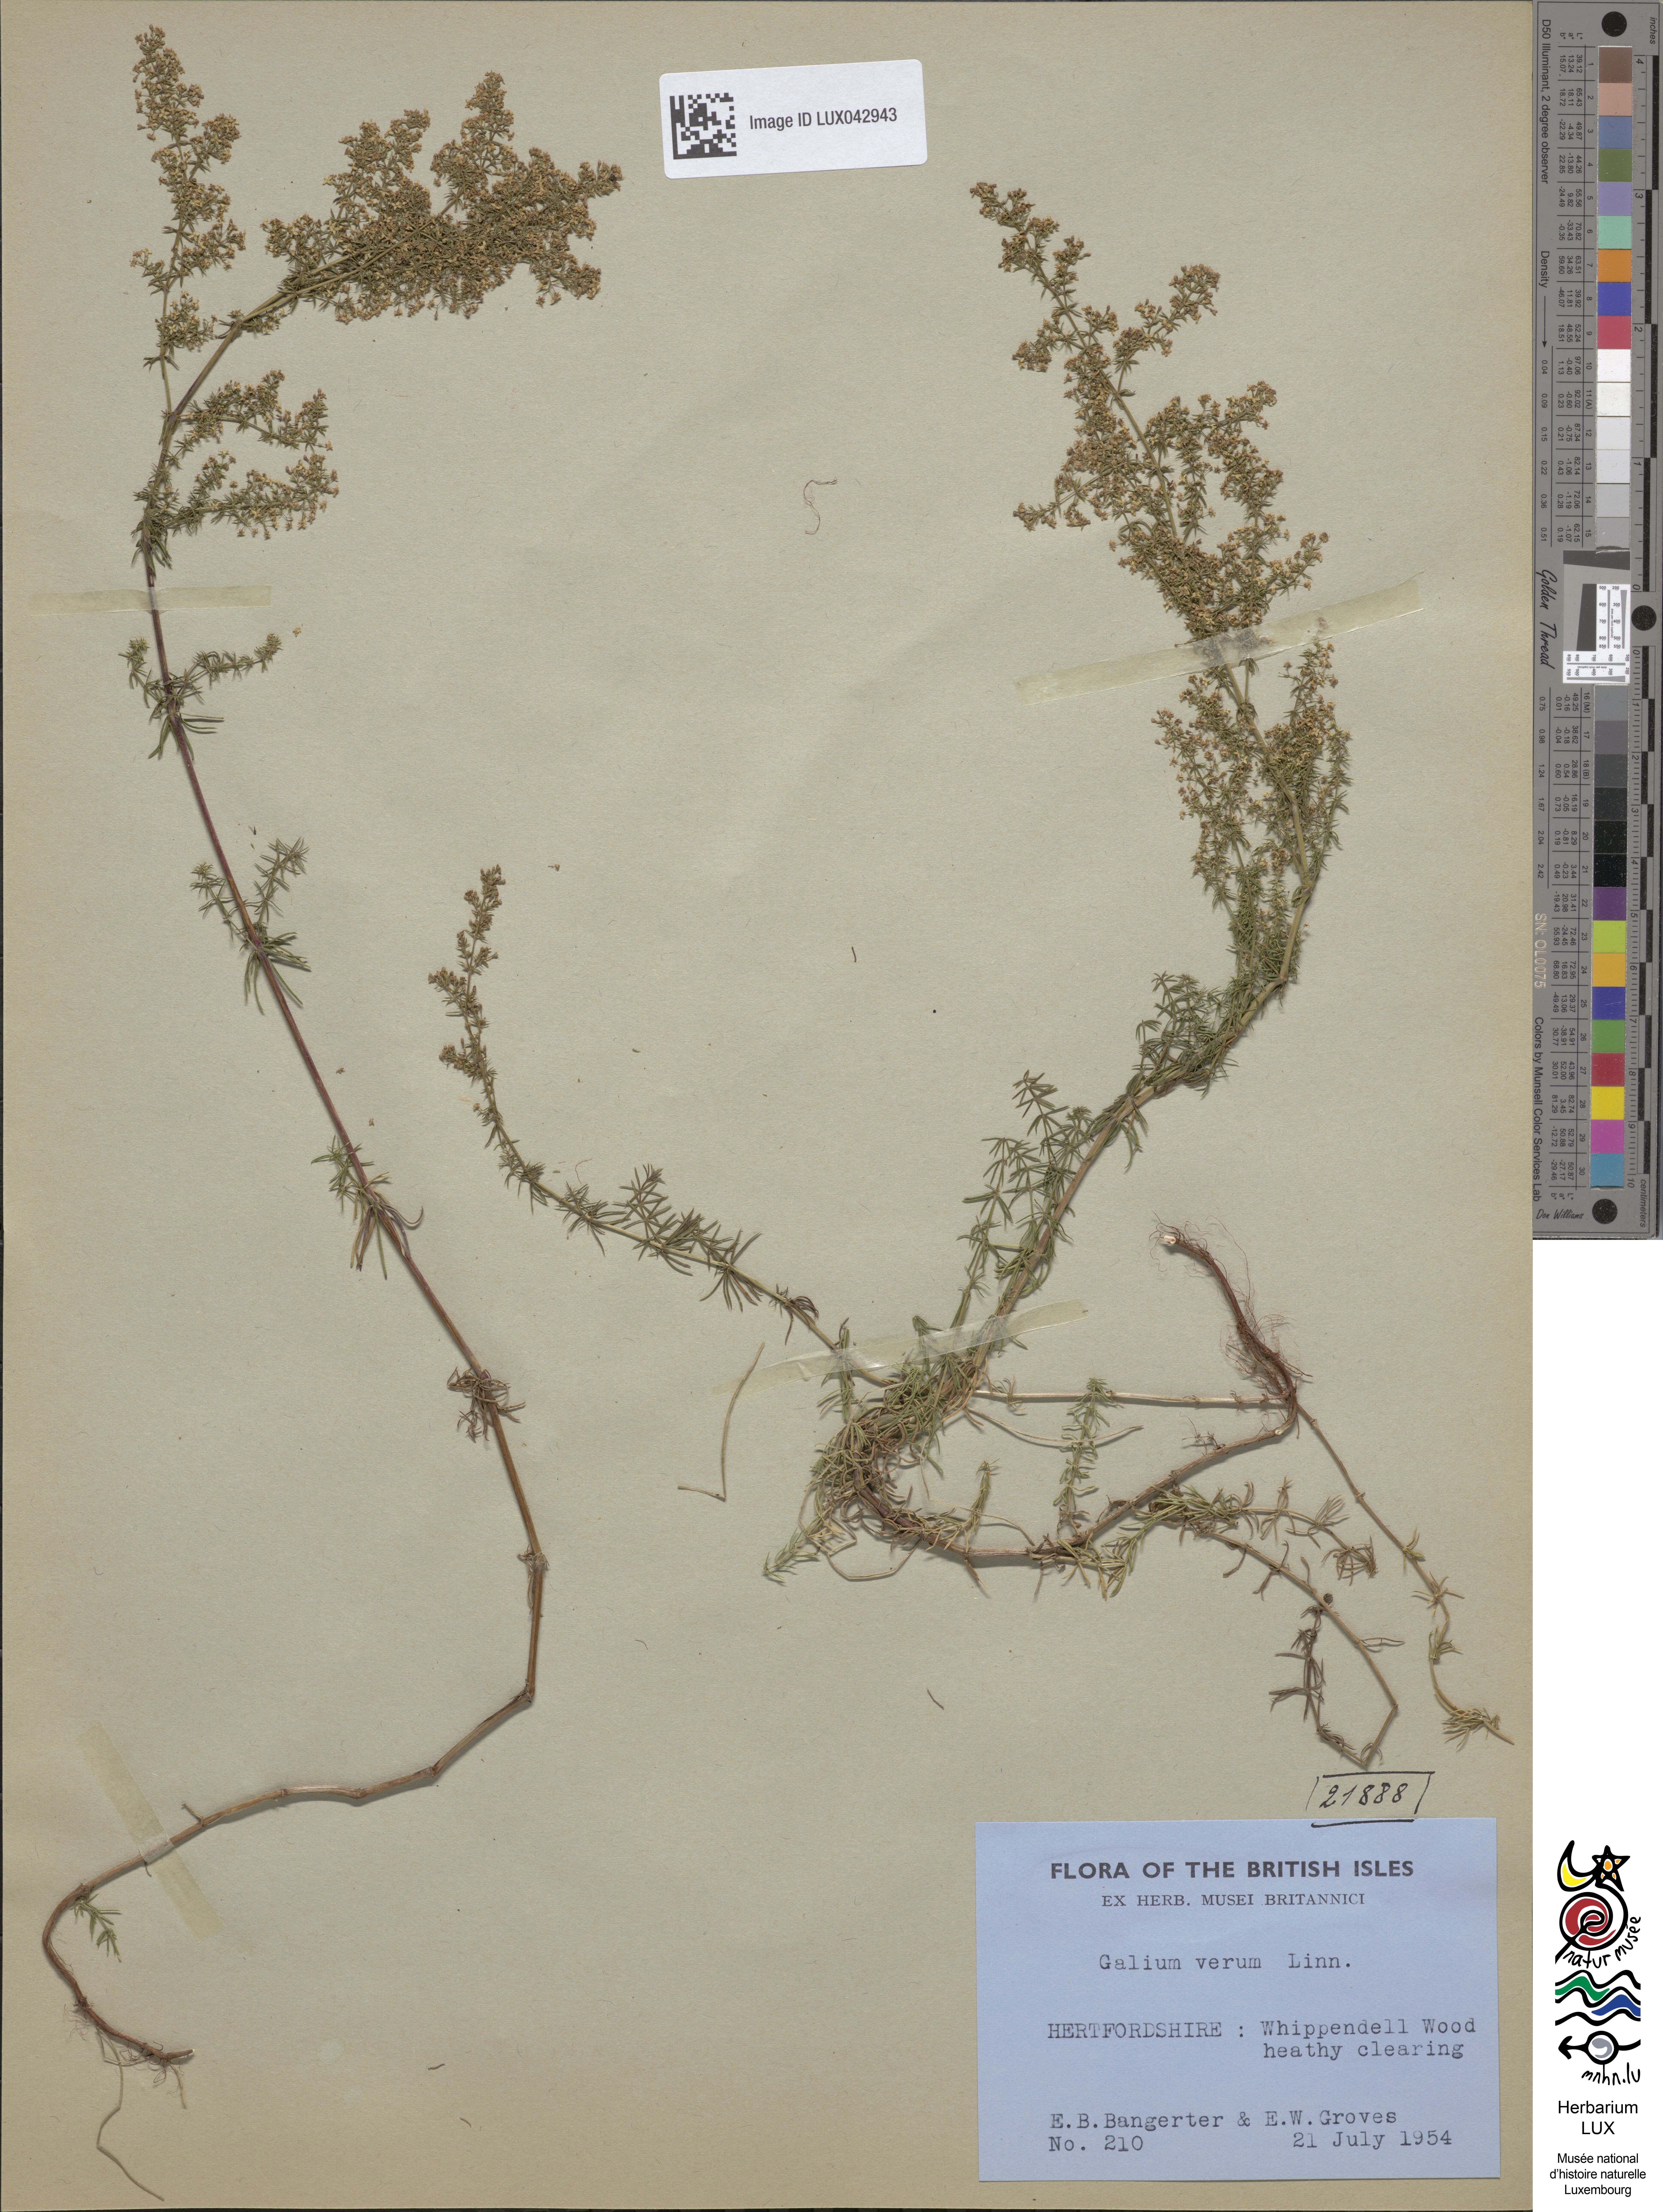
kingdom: Plantae
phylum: Tracheophyta
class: Magnoliopsida
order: Gentianales
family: Rubiaceae
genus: Galium
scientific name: Galium verum
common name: Lady's bedstraw
